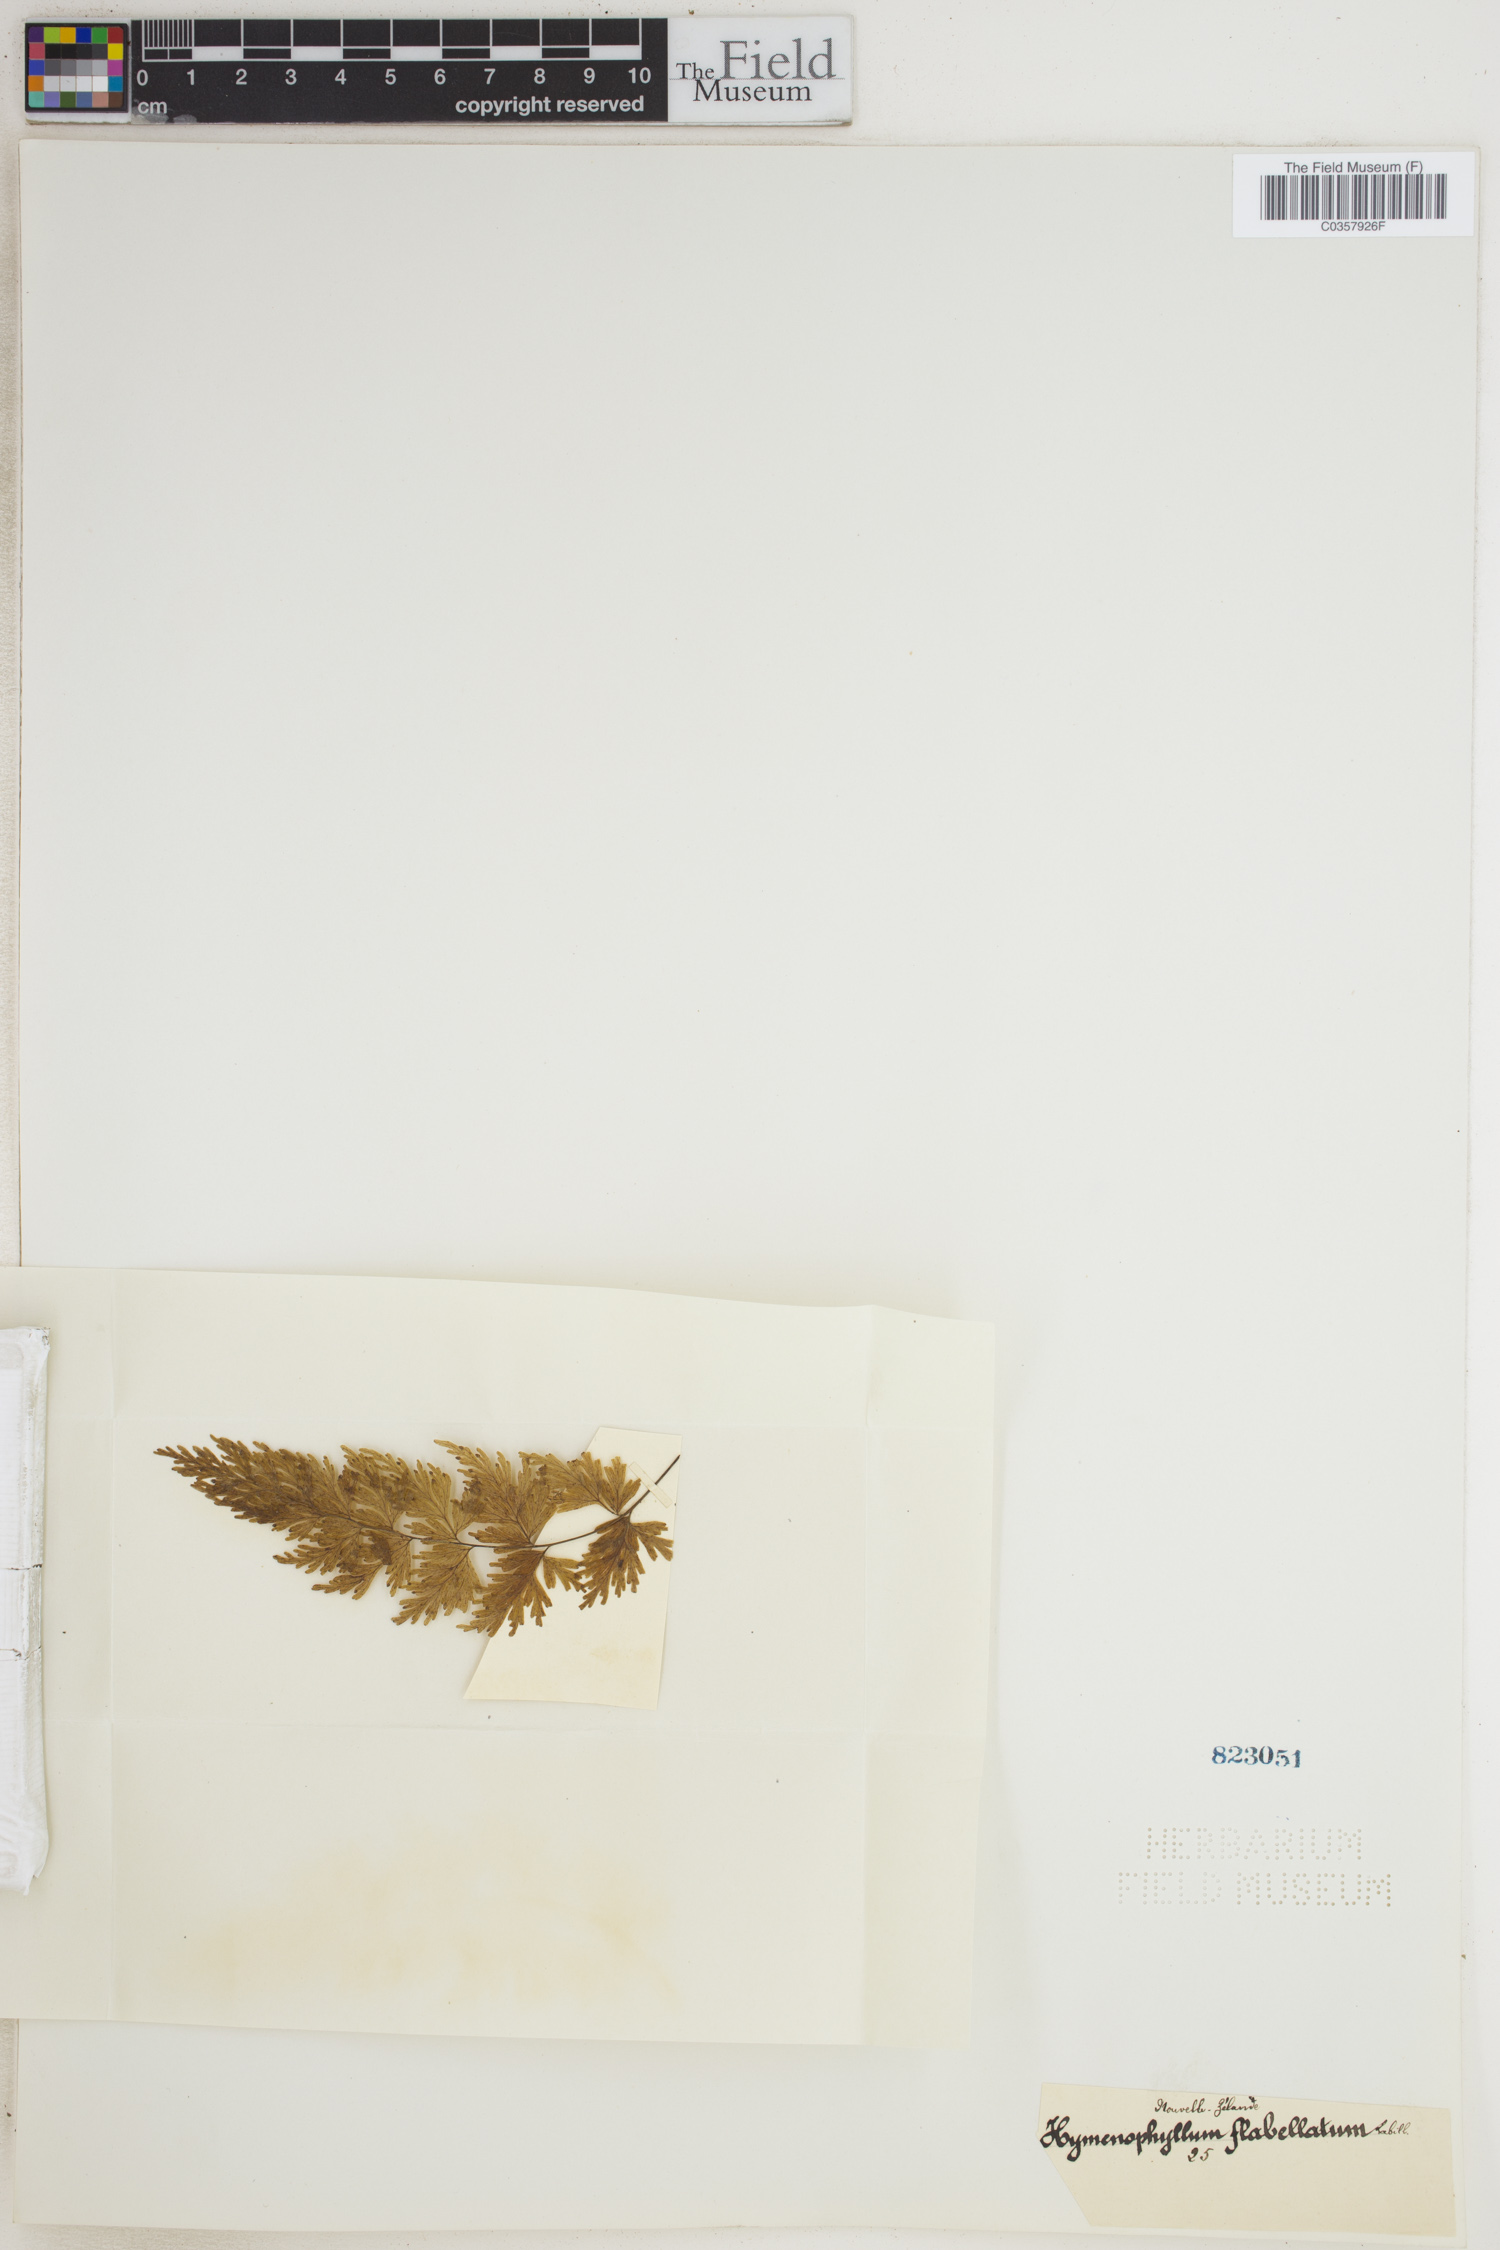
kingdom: Plantae
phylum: Tracheophyta
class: Polypodiopsida
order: Hymenophyllales
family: Hymenophyllaceae
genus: Hymenophyllum
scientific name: Hymenophyllum flabellatum
